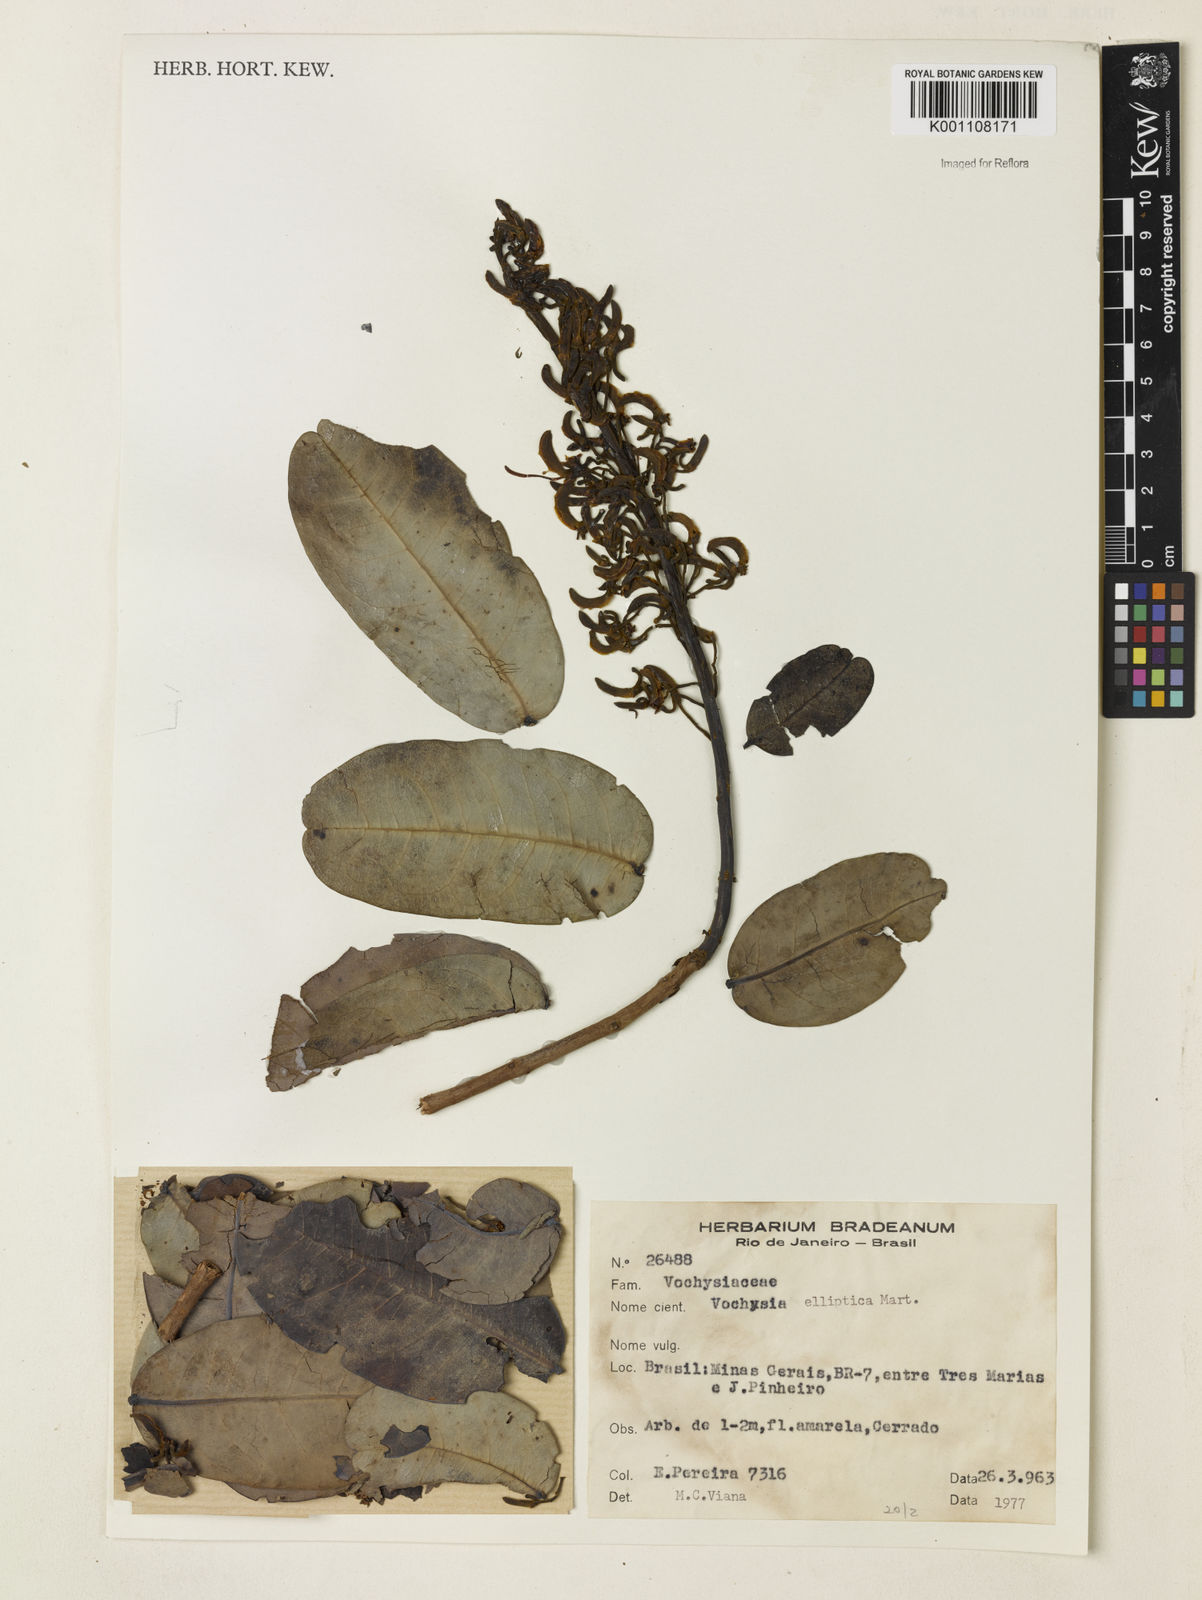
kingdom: Plantae
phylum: Tracheophyta
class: Magnoliopsida
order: Myrtales
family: Vochysiaceae
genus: Vochysia
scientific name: Vochysia elliptica
